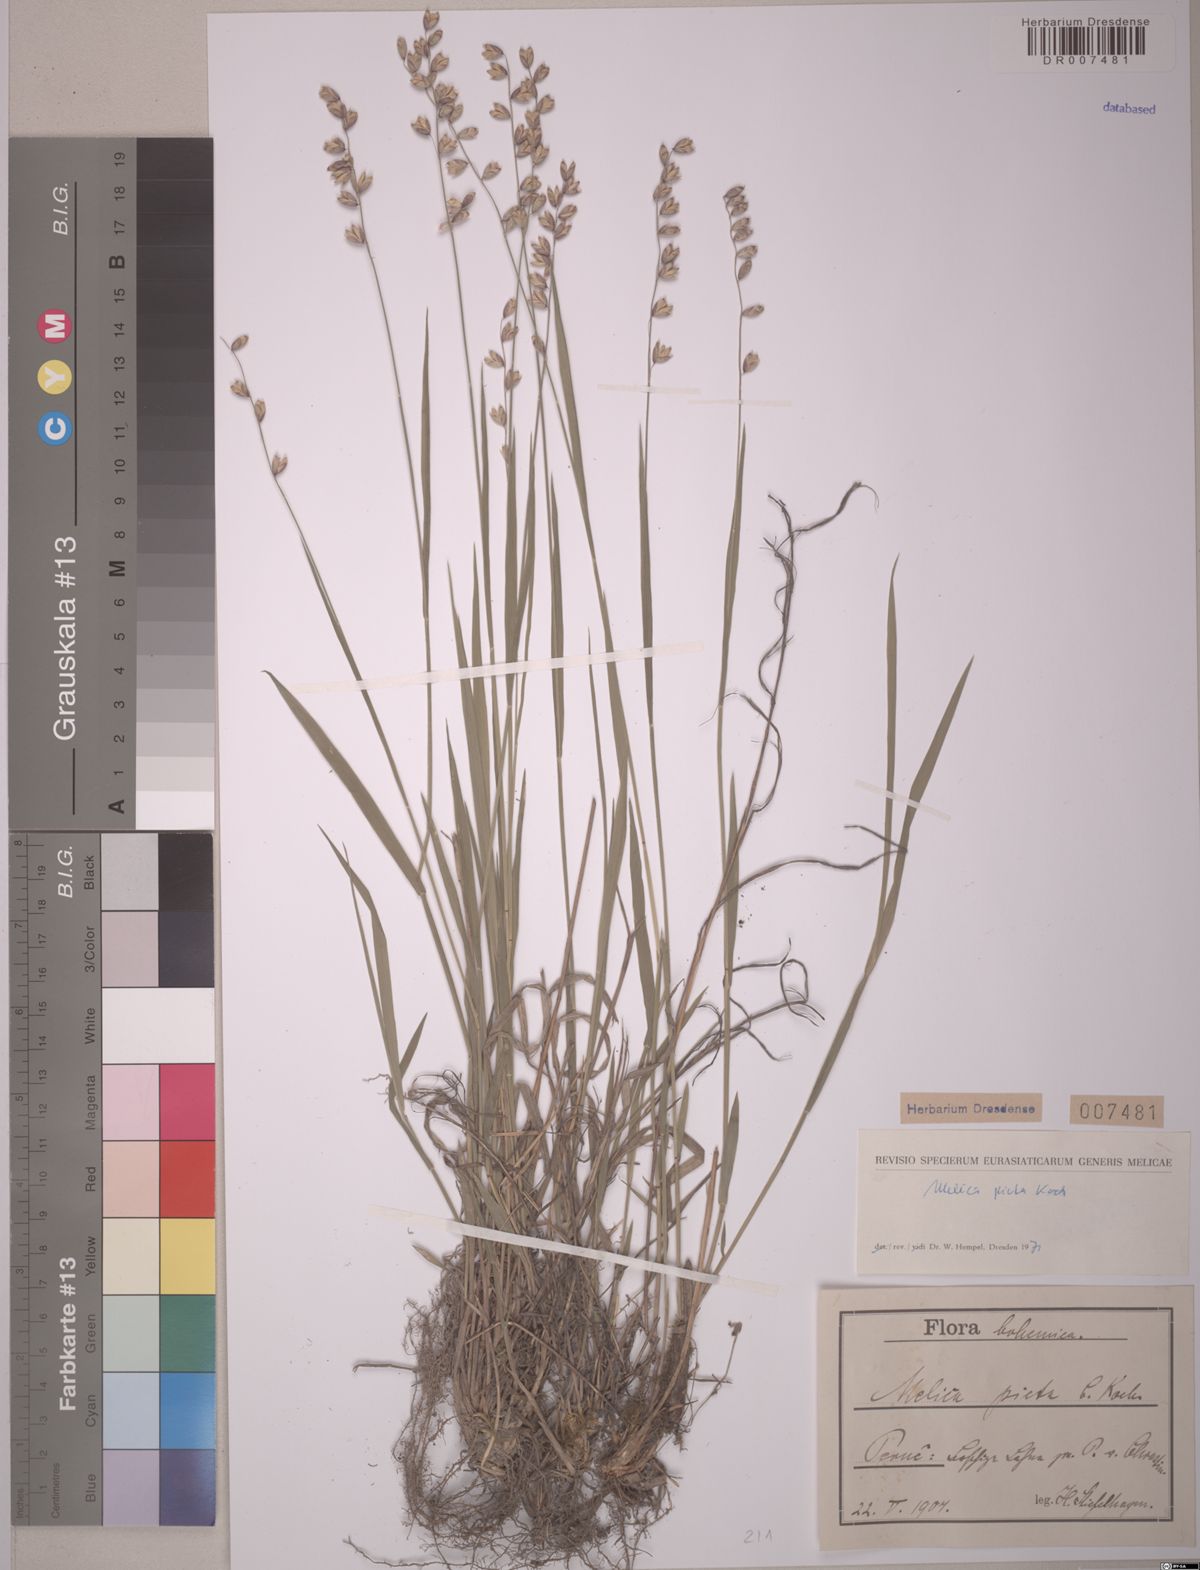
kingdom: Plantae
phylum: Tracheophyta
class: Liliopsida
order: Poales
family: Poaceae
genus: Melica
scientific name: Melica picta
